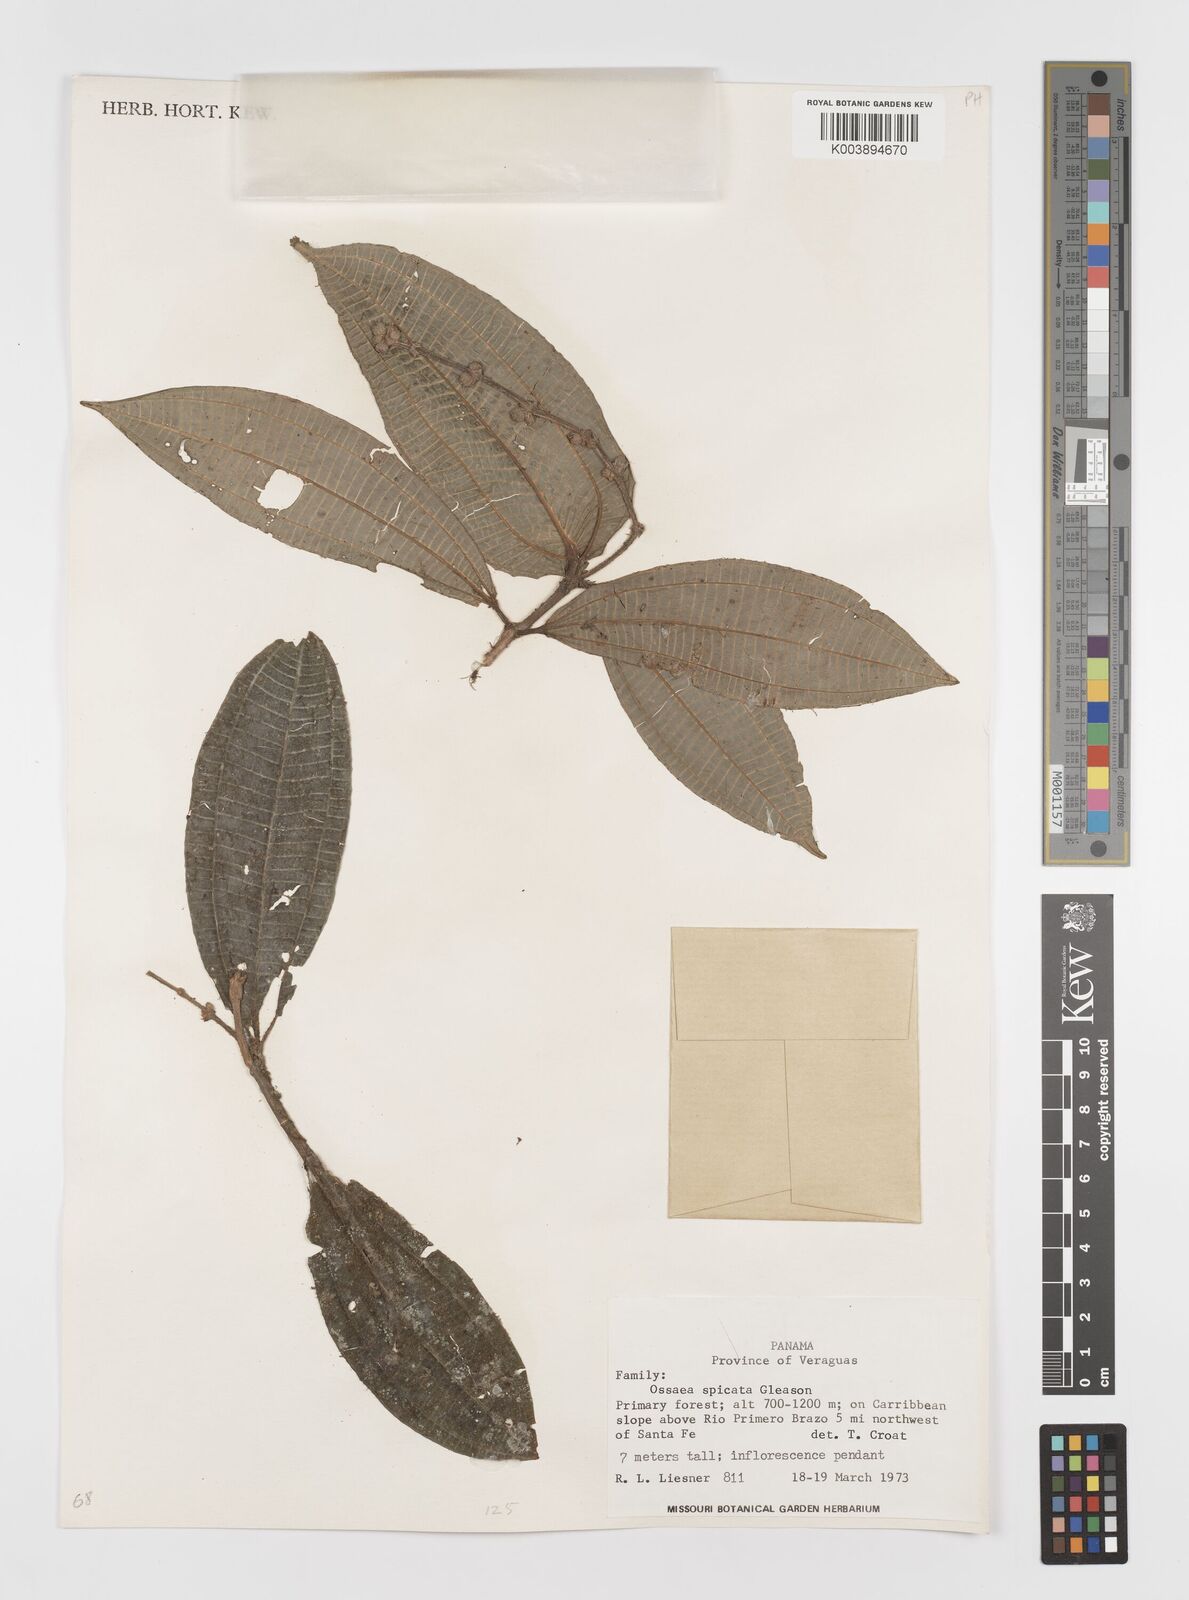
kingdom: Plantae
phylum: Tracheophyta
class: Magnoliopsida
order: Myrtales
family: Melastomataceae
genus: Miconia
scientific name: Miconia spicata
